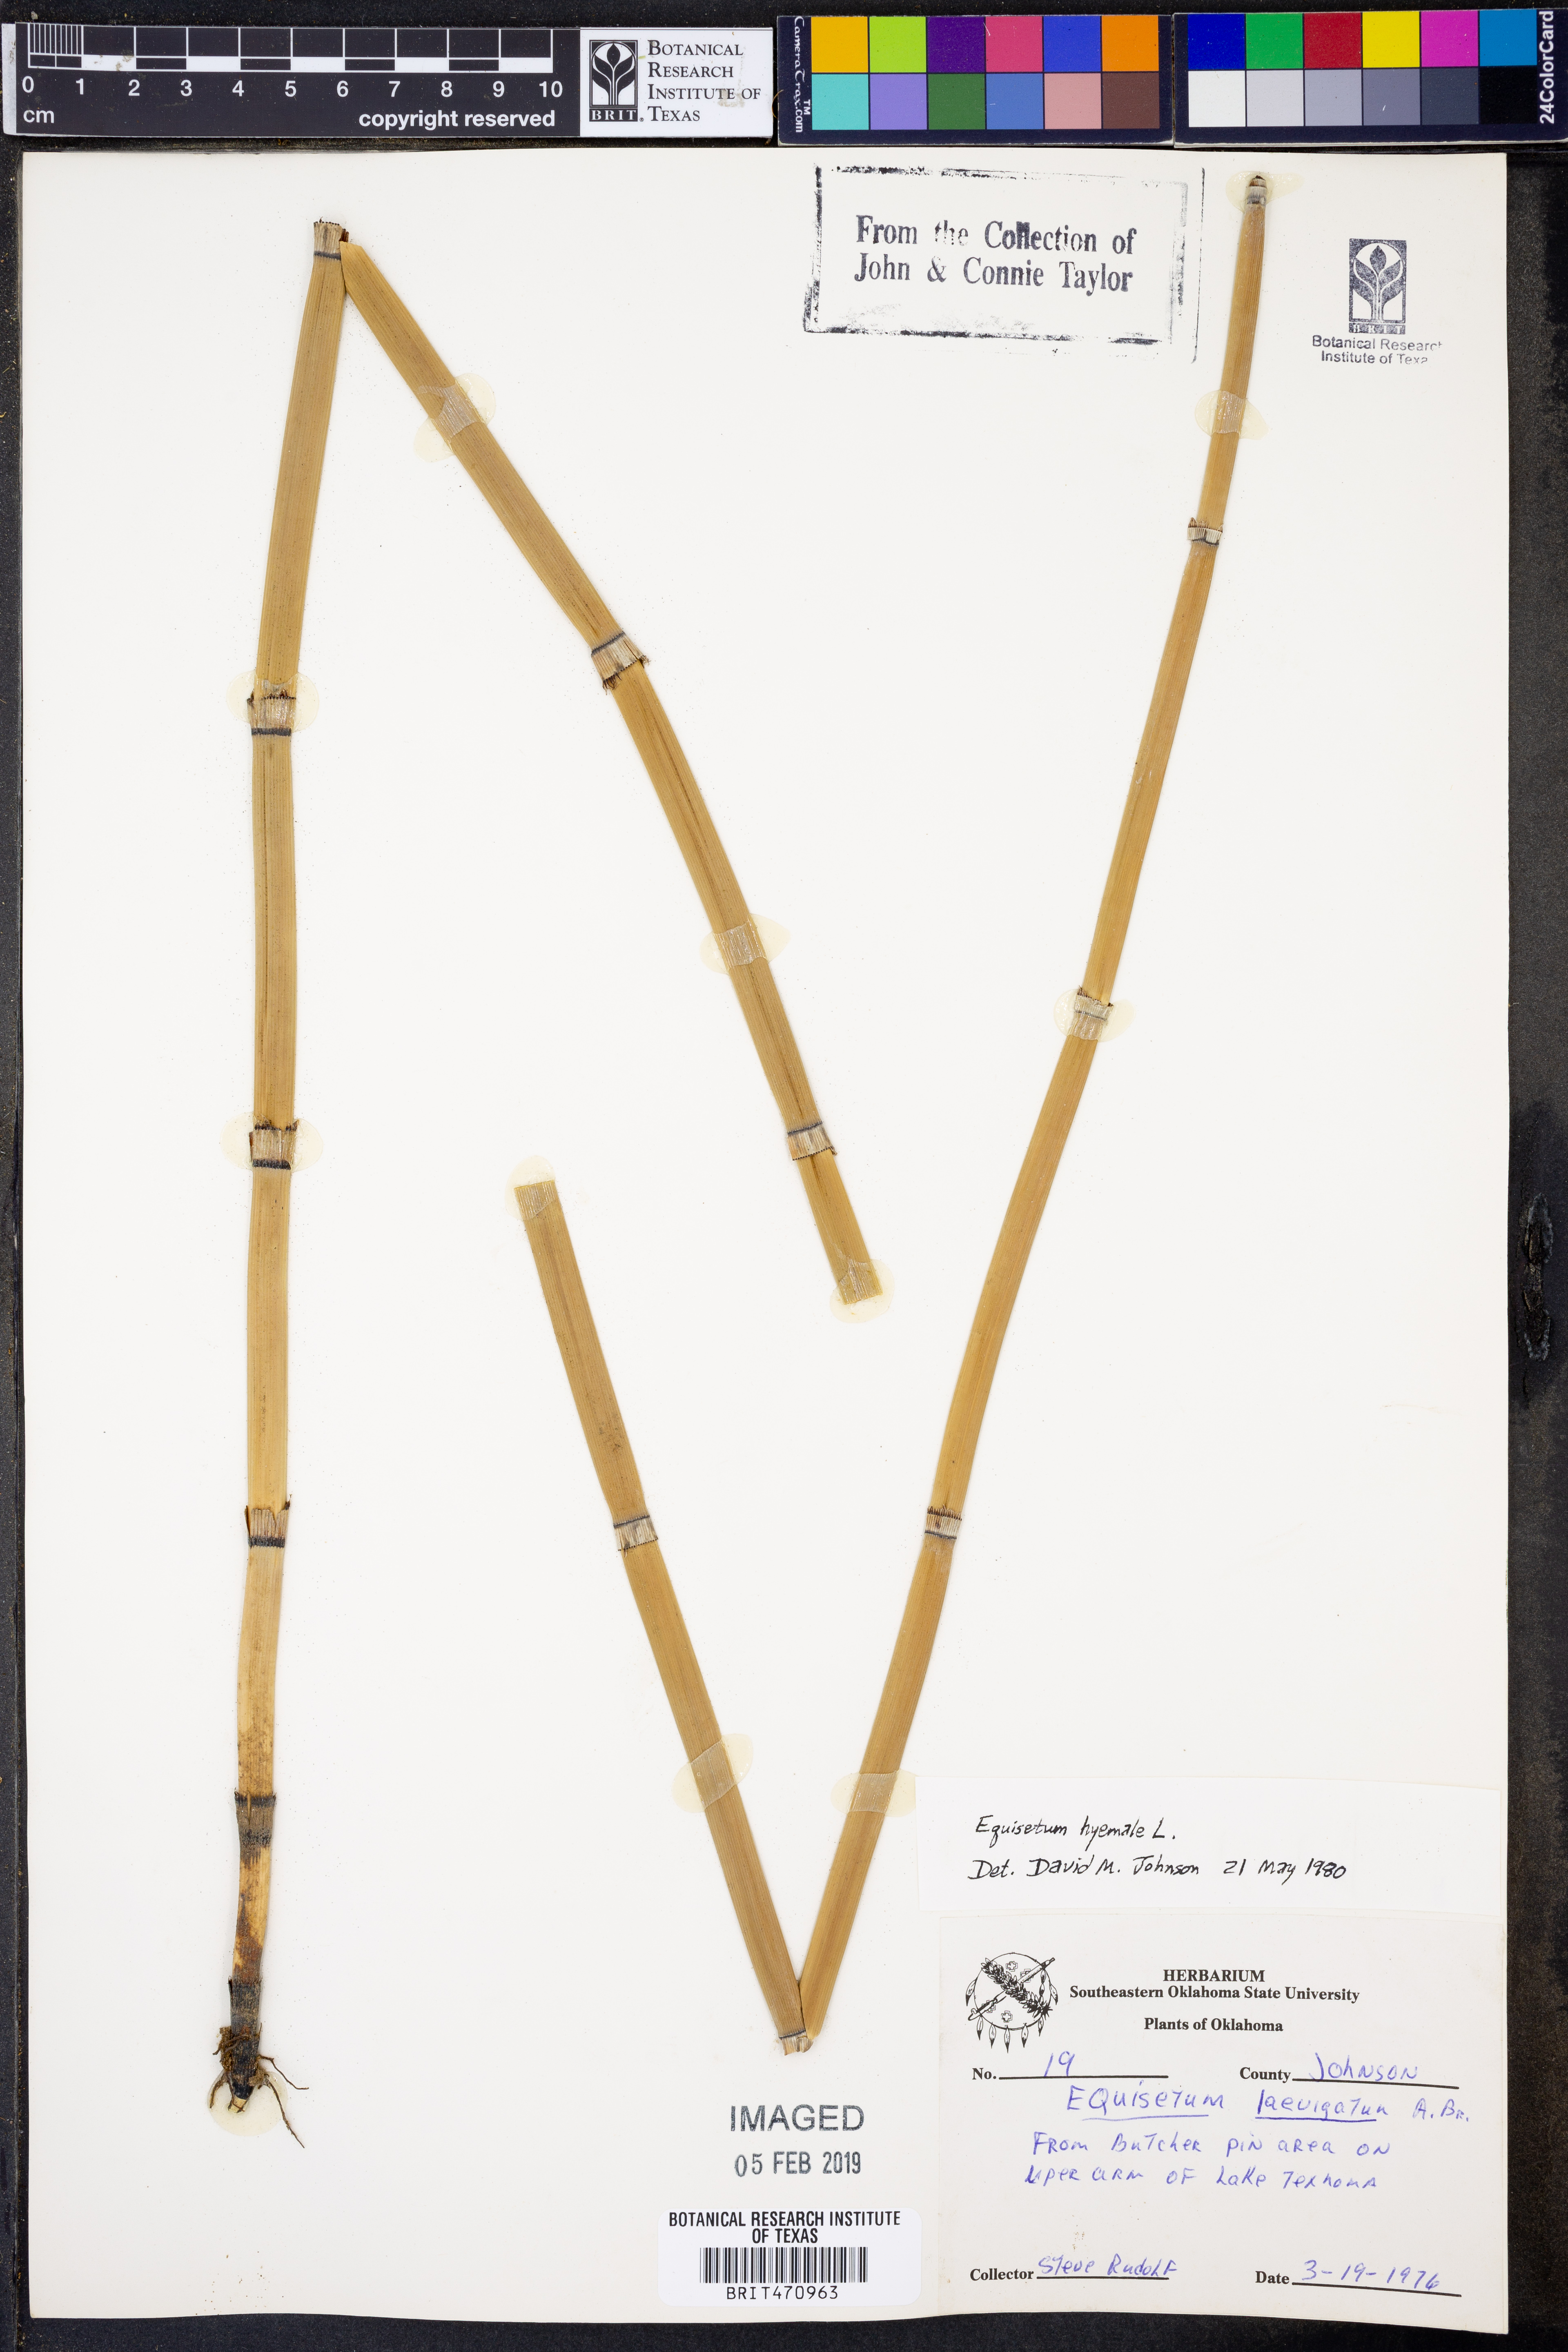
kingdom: Plantae
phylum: Tracheophyta
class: Polypodiopsida
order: Equisetales
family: Equisetaceae
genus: Equisetum
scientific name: Equisetum hyemale
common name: Rough horsetail
